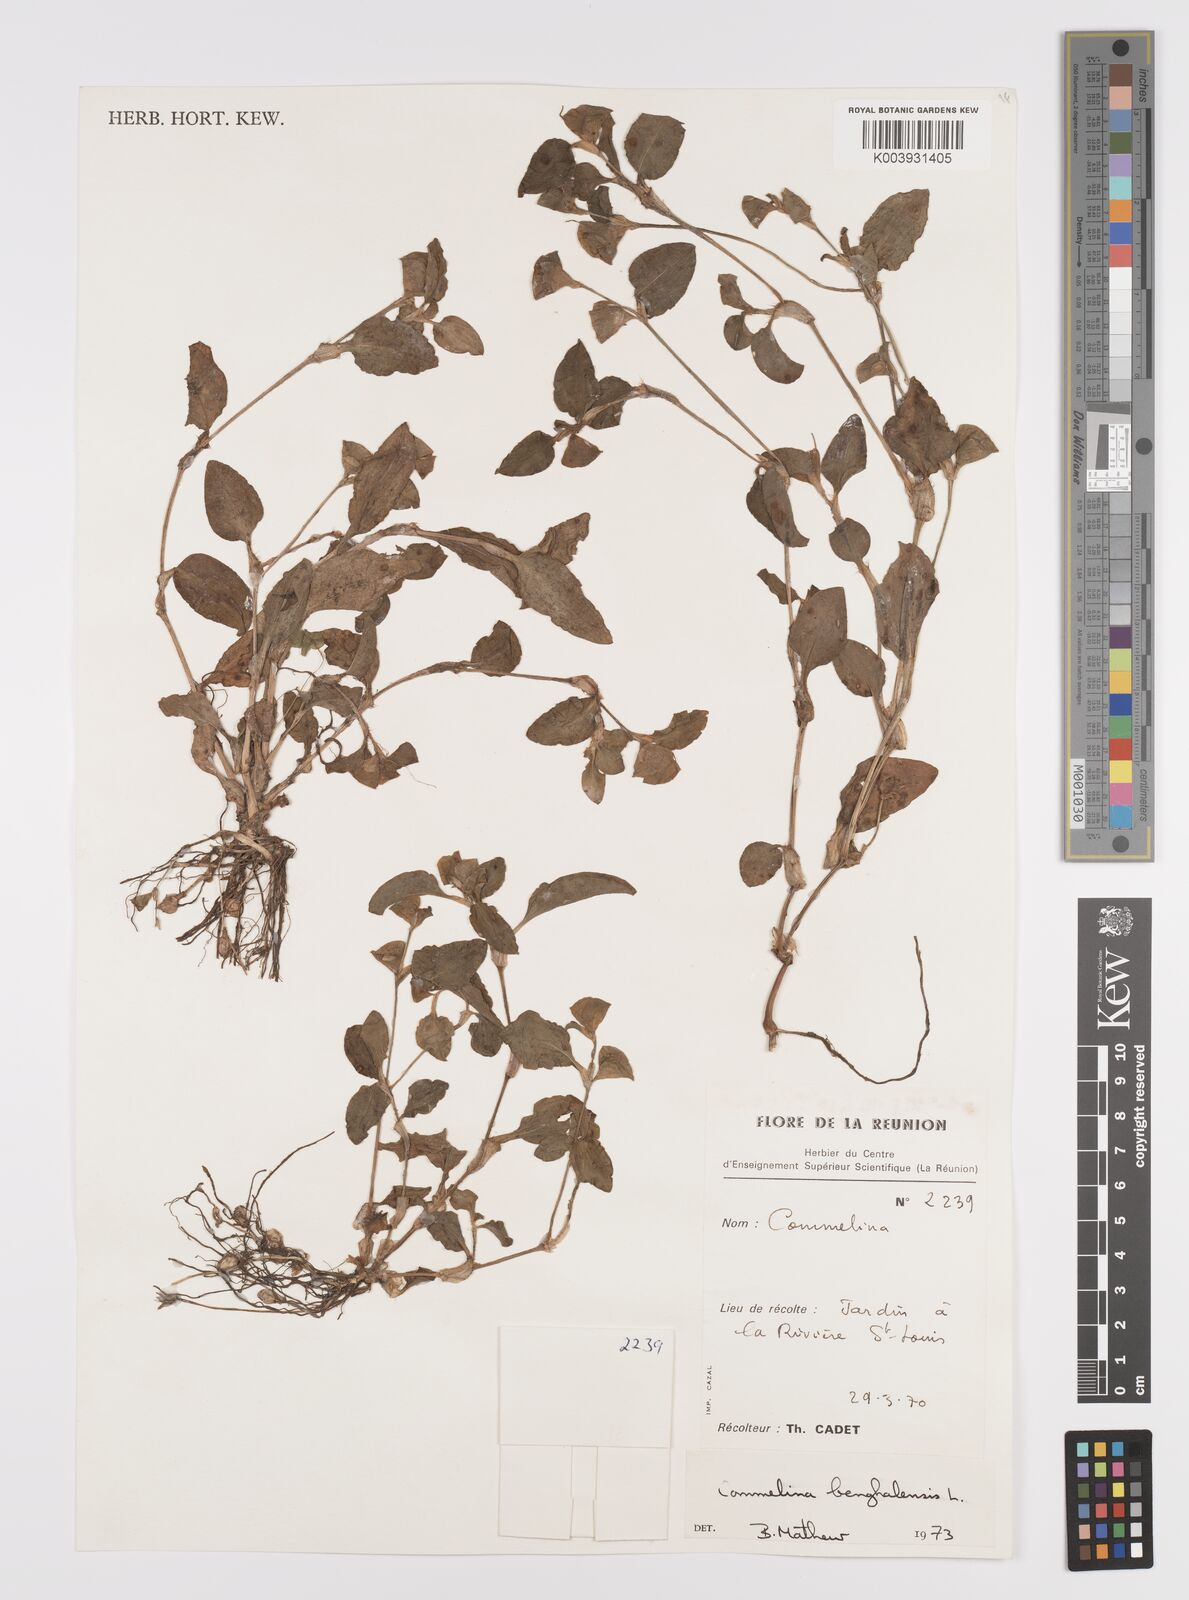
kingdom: Plantae
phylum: Tracheophyta
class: Liliopsida
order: Commelinales
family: Commelinaceae
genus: Commelina
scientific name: Commelina benghalensis
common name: Jio
